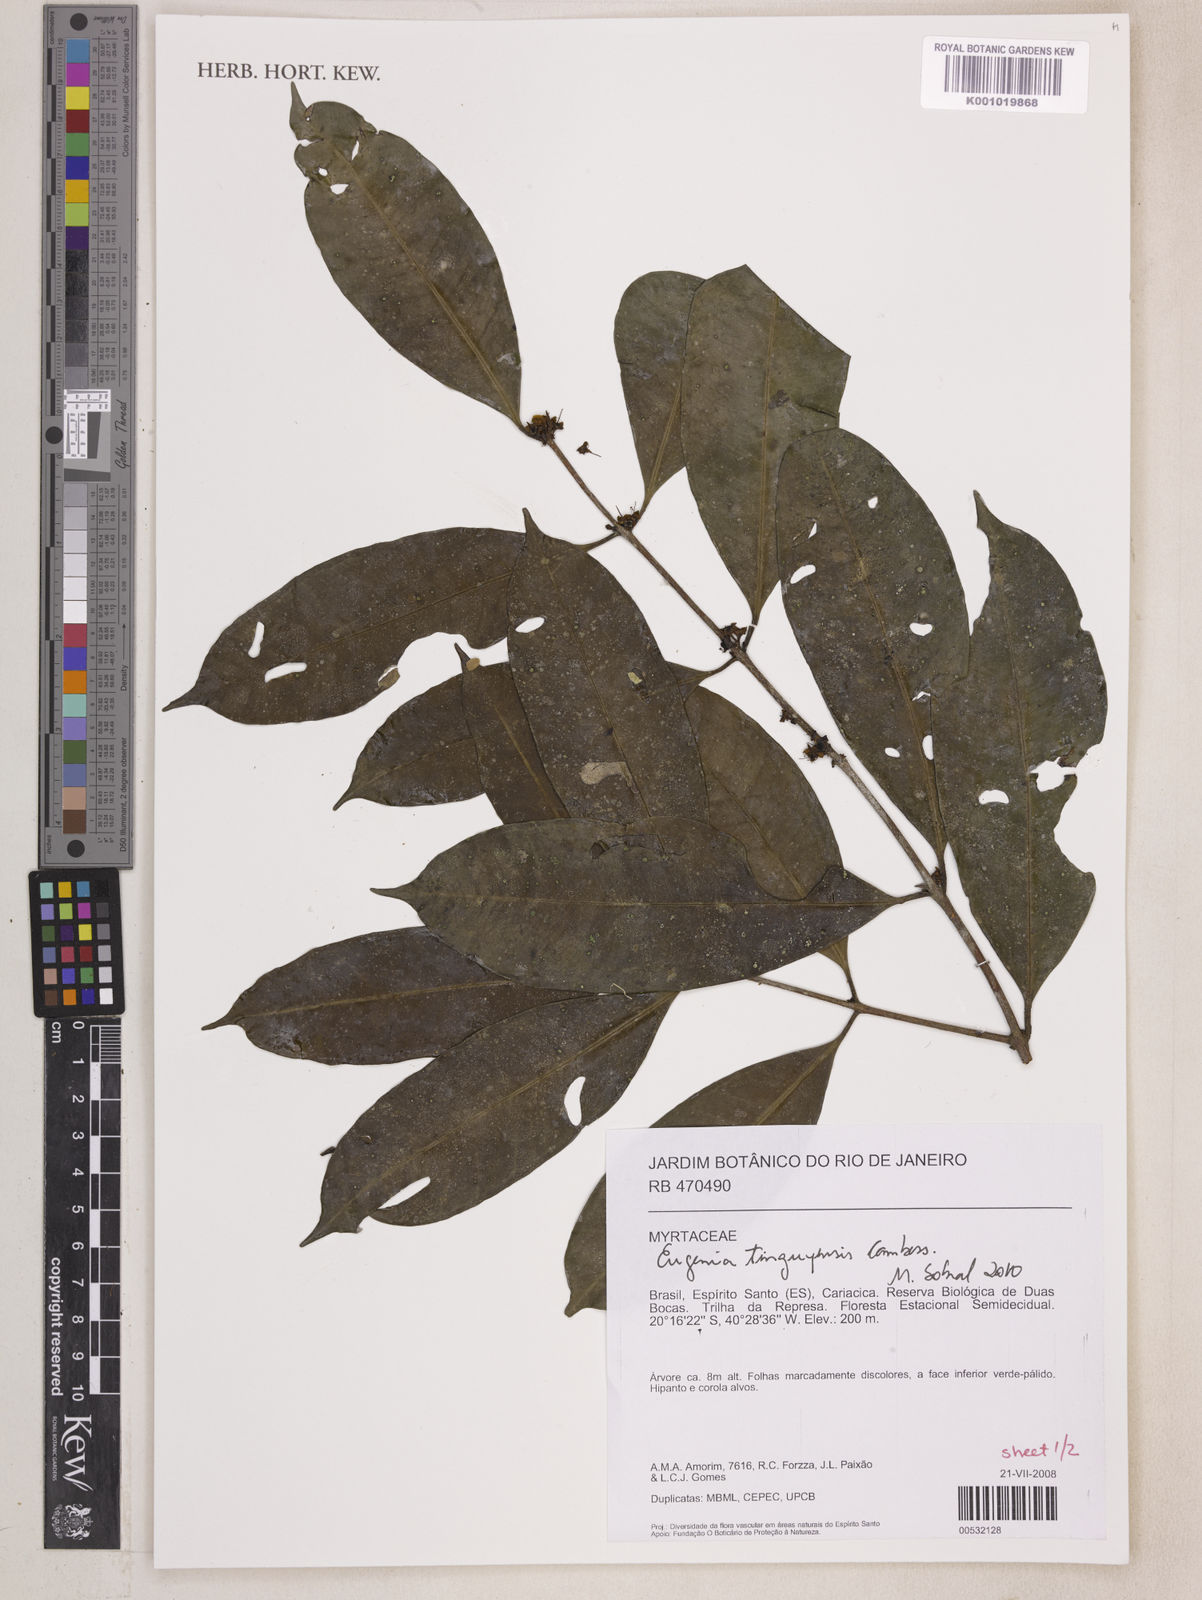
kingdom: Plantae
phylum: Tracheophyta
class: Magnoliopsida
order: Myrtales
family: Myrtaceae
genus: Eugenia
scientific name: Eugenia pisiformis
